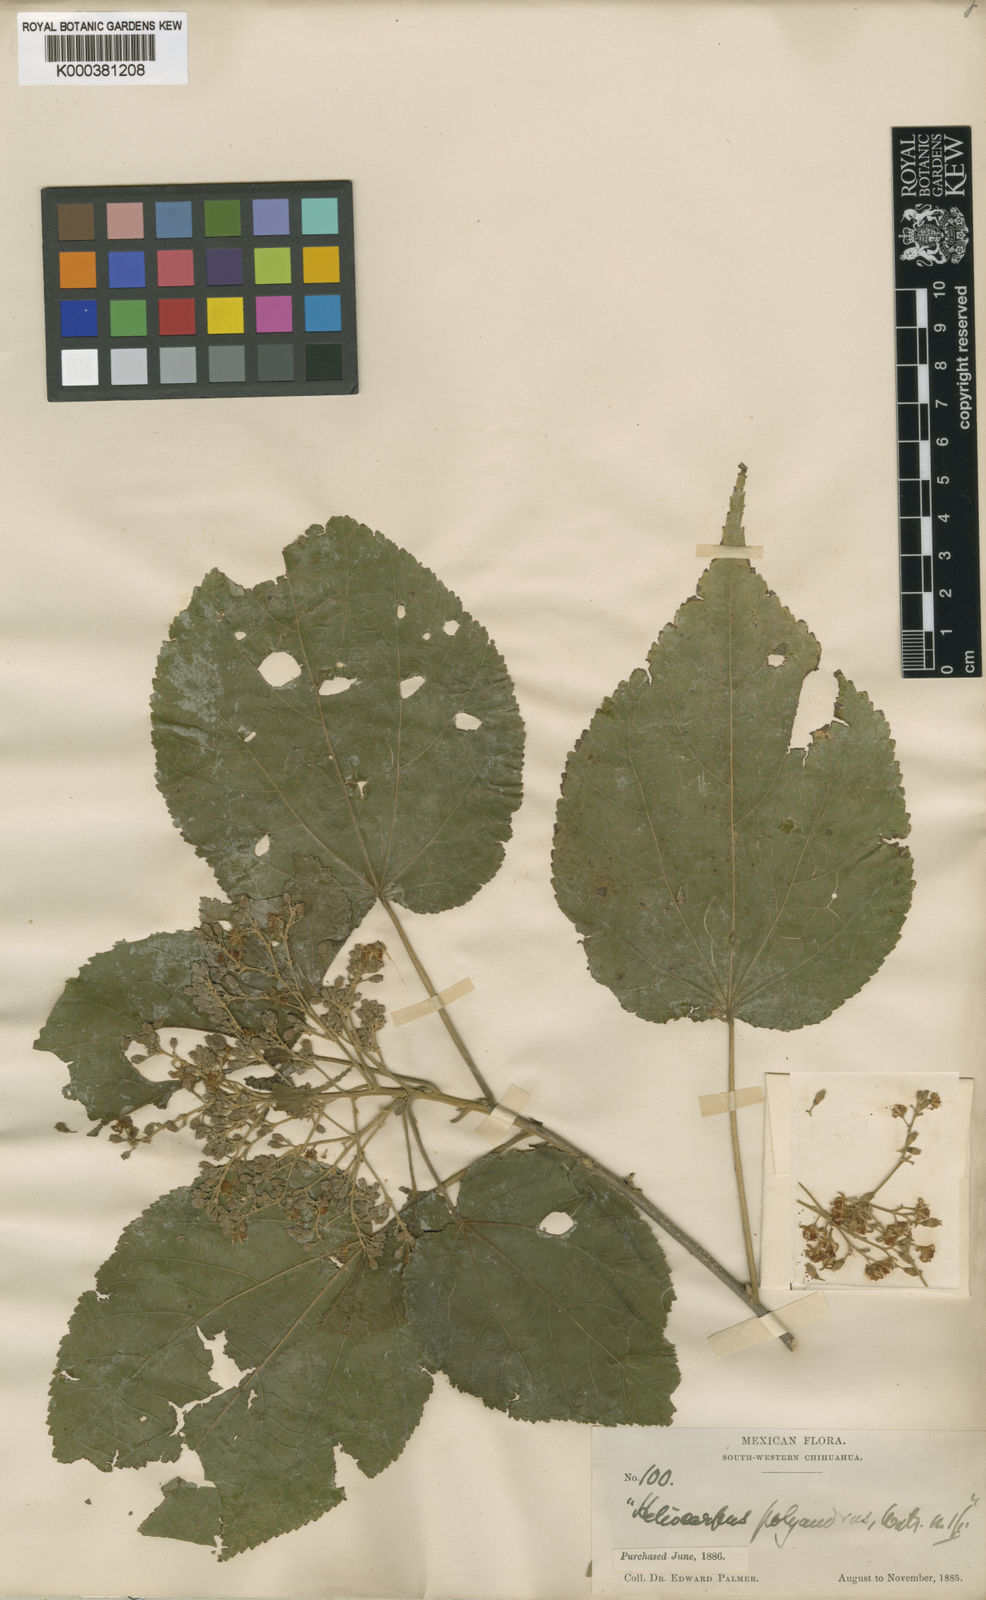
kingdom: Plantae
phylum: Tracheophyta
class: Magnoliopsida
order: Malvales
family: Malvaceae
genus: Heliocarpus
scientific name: Heliocarpus palmeri
